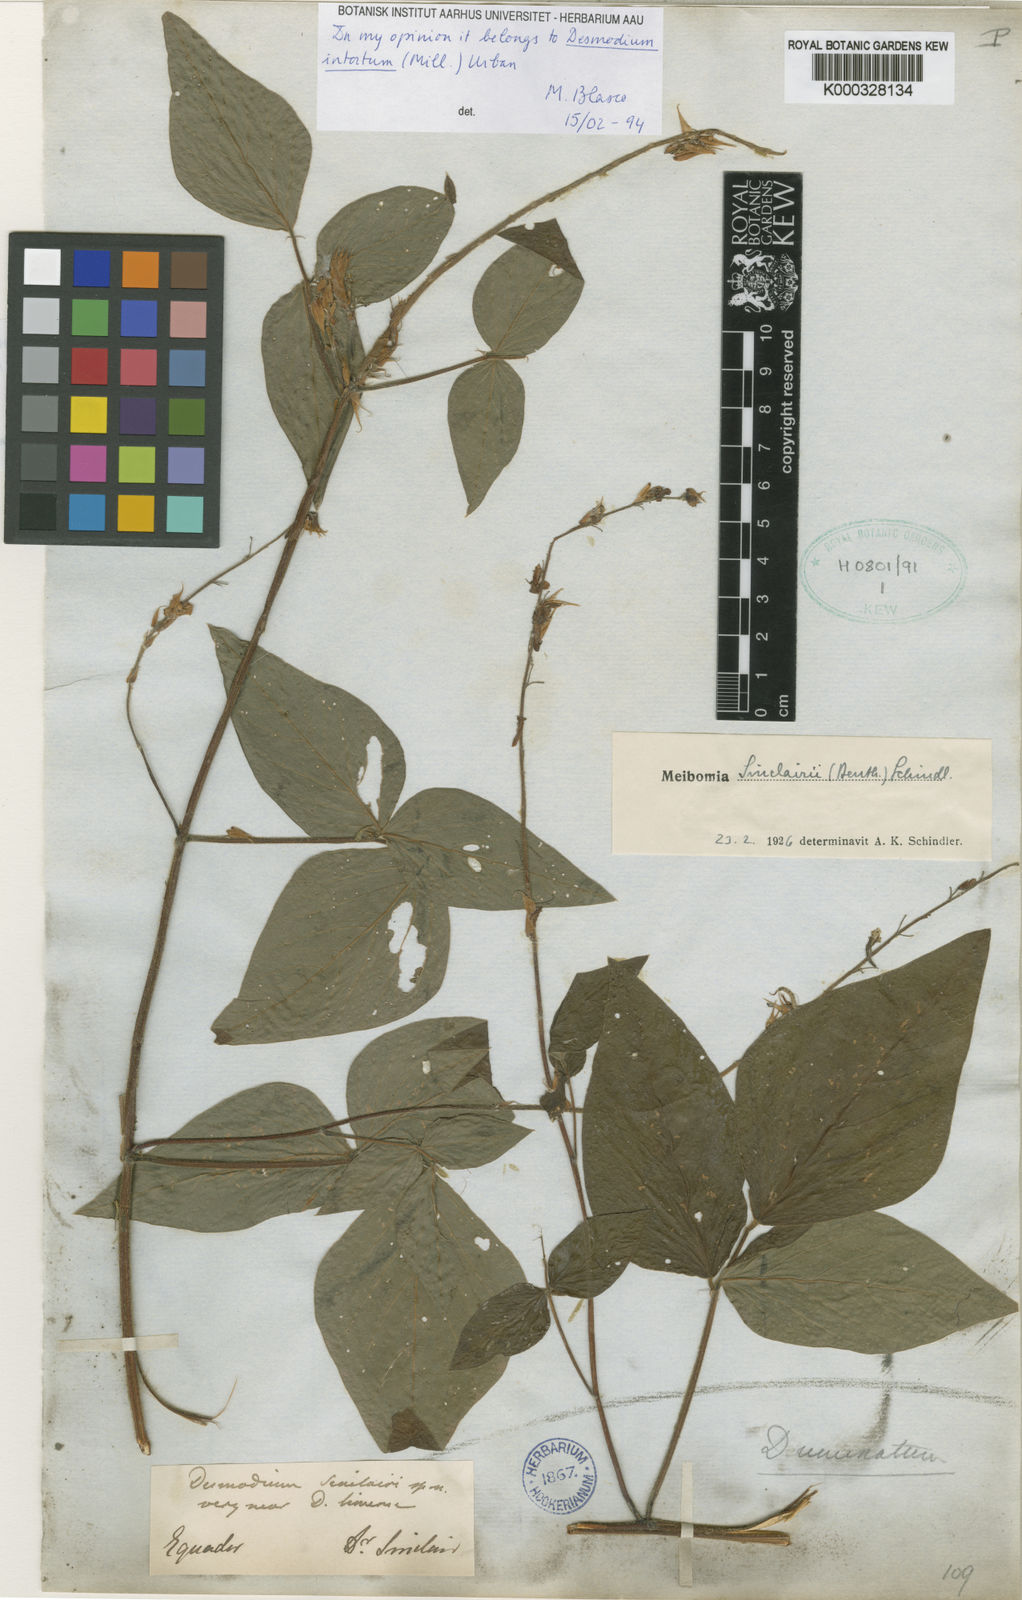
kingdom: Plantae
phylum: Tracheophyta
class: Magnoliopsida
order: Fabales
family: Fabaceae
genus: Desmodium
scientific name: Desmodium uncinatum
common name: Silverleaf desmodium
